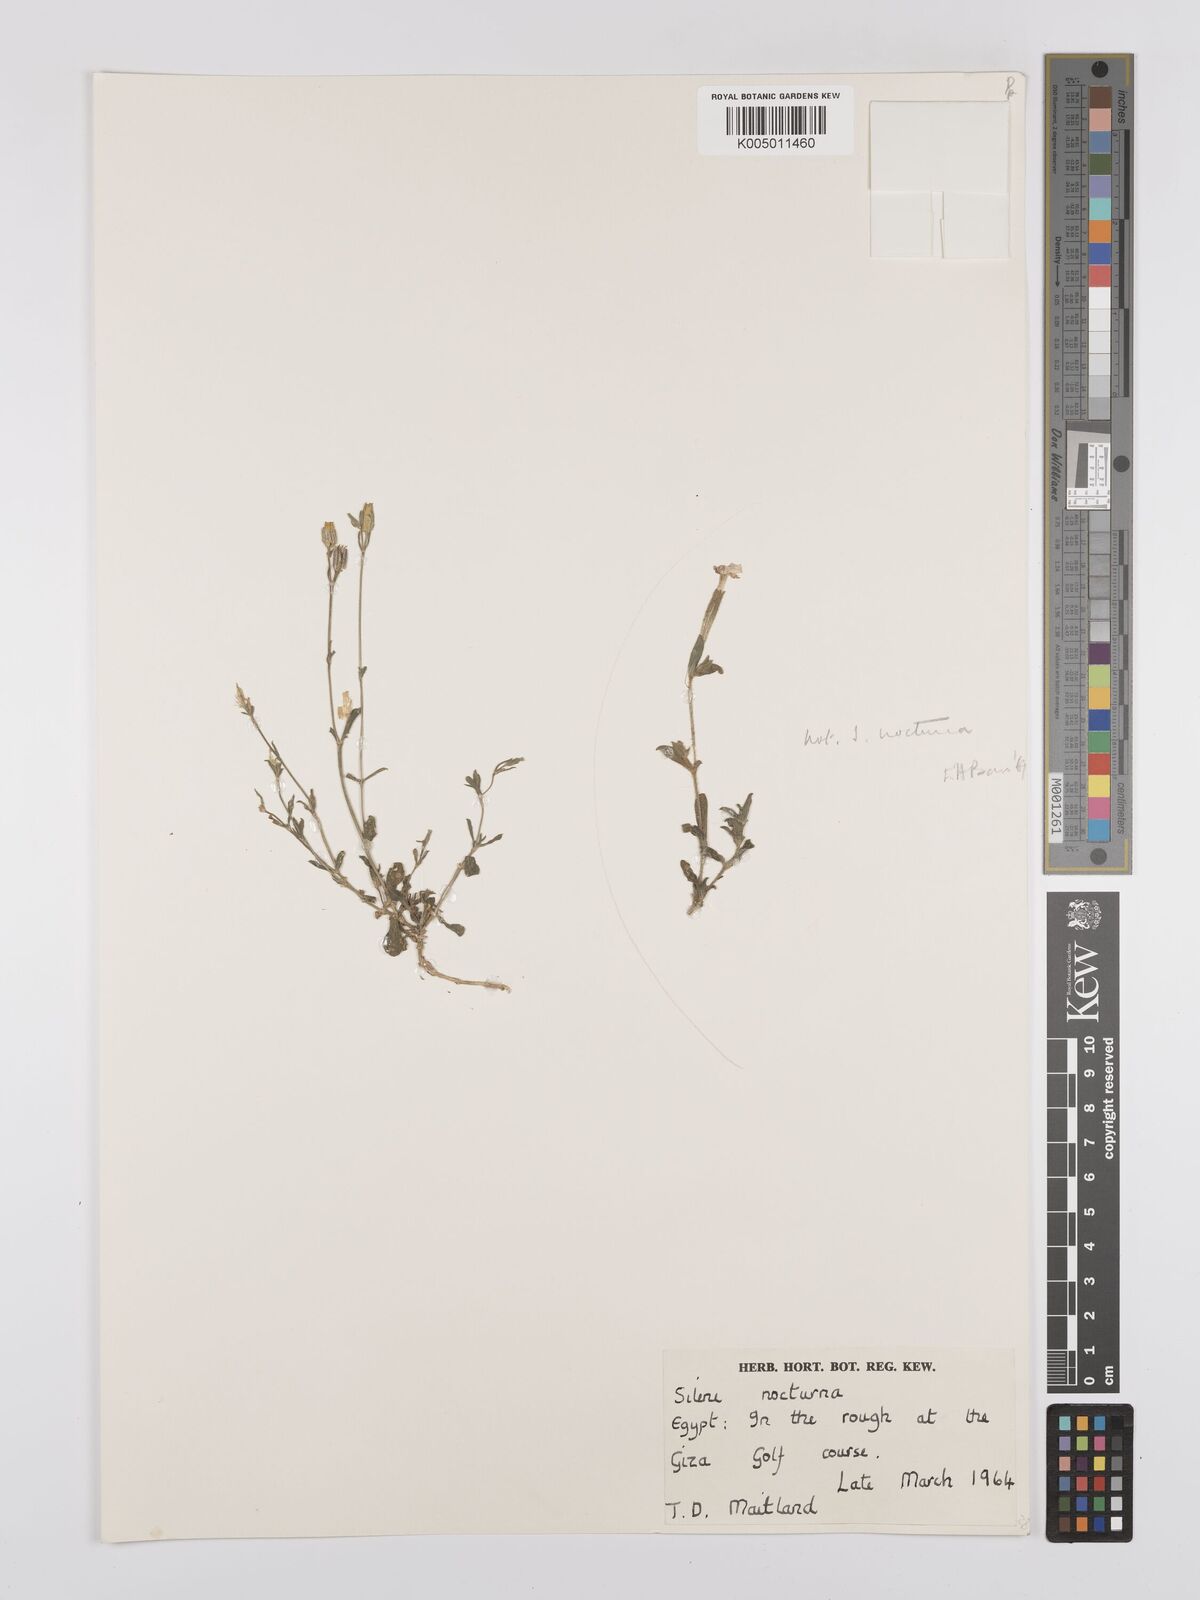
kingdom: Plantae
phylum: Tracheophyta
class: Magnoliopsida
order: Caryophyllales
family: Caryophyllaceae
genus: Silene
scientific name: Silene nocturna
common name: Mediterranean catchfly
